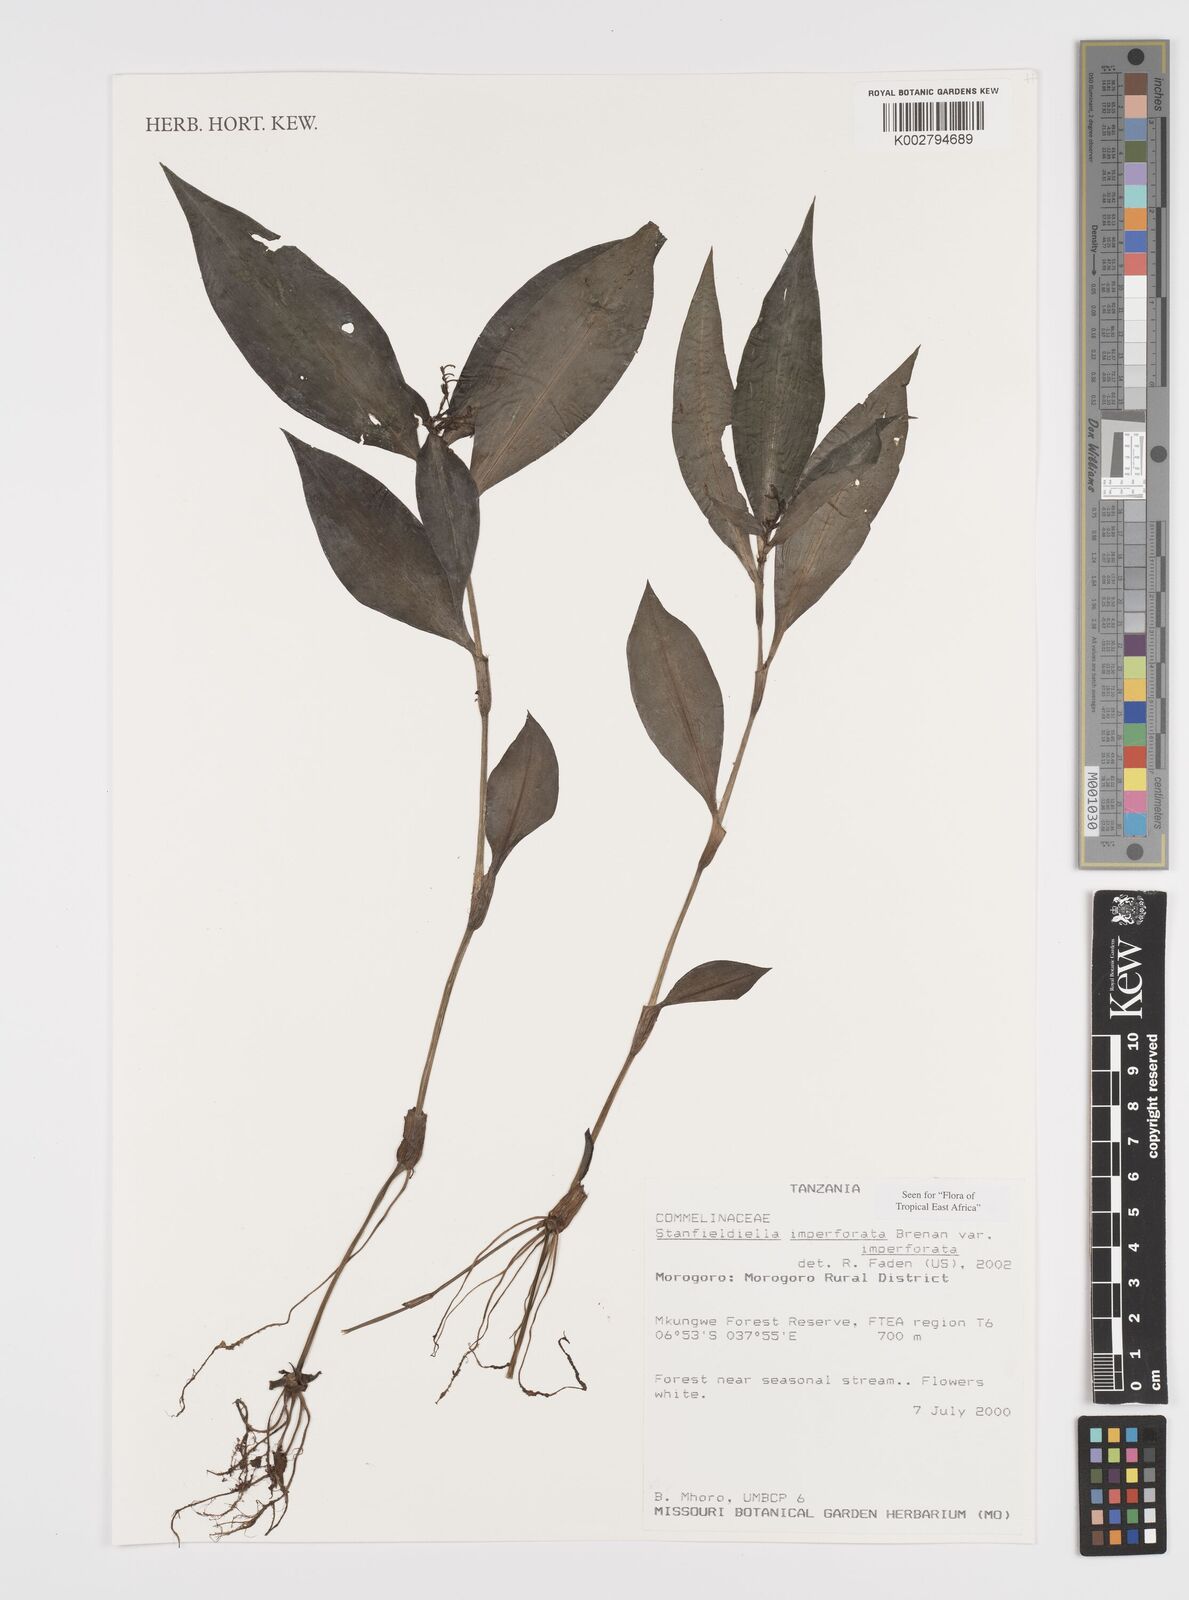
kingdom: Plantae
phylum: Tracheophyta
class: Liliopsida
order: Commelinales
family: Commelinaceae
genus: Stanfieldiella
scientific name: Stanfieldiella imperforata
